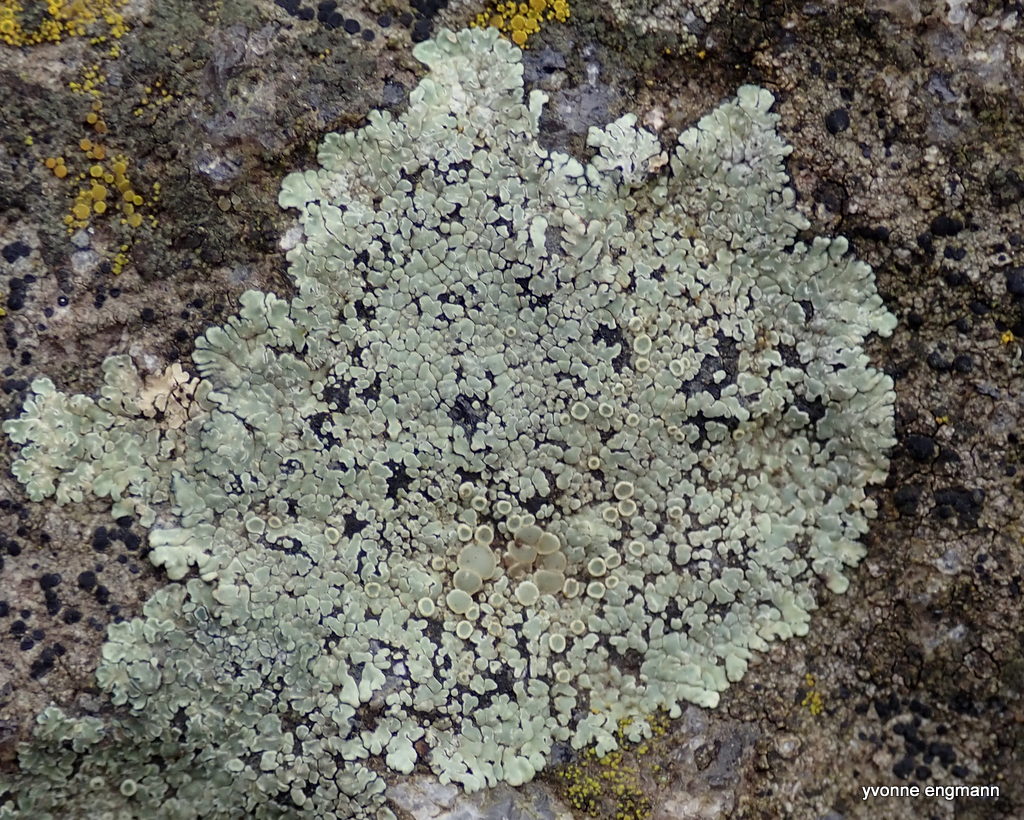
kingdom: Fungi
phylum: Ascomycota
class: Lecanoromycetes
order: Lecanorales
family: Lecanoraceae
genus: Protoparmeliopsis
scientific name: Protoparmeliopsis muralis
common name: randfliget kantskivelav
